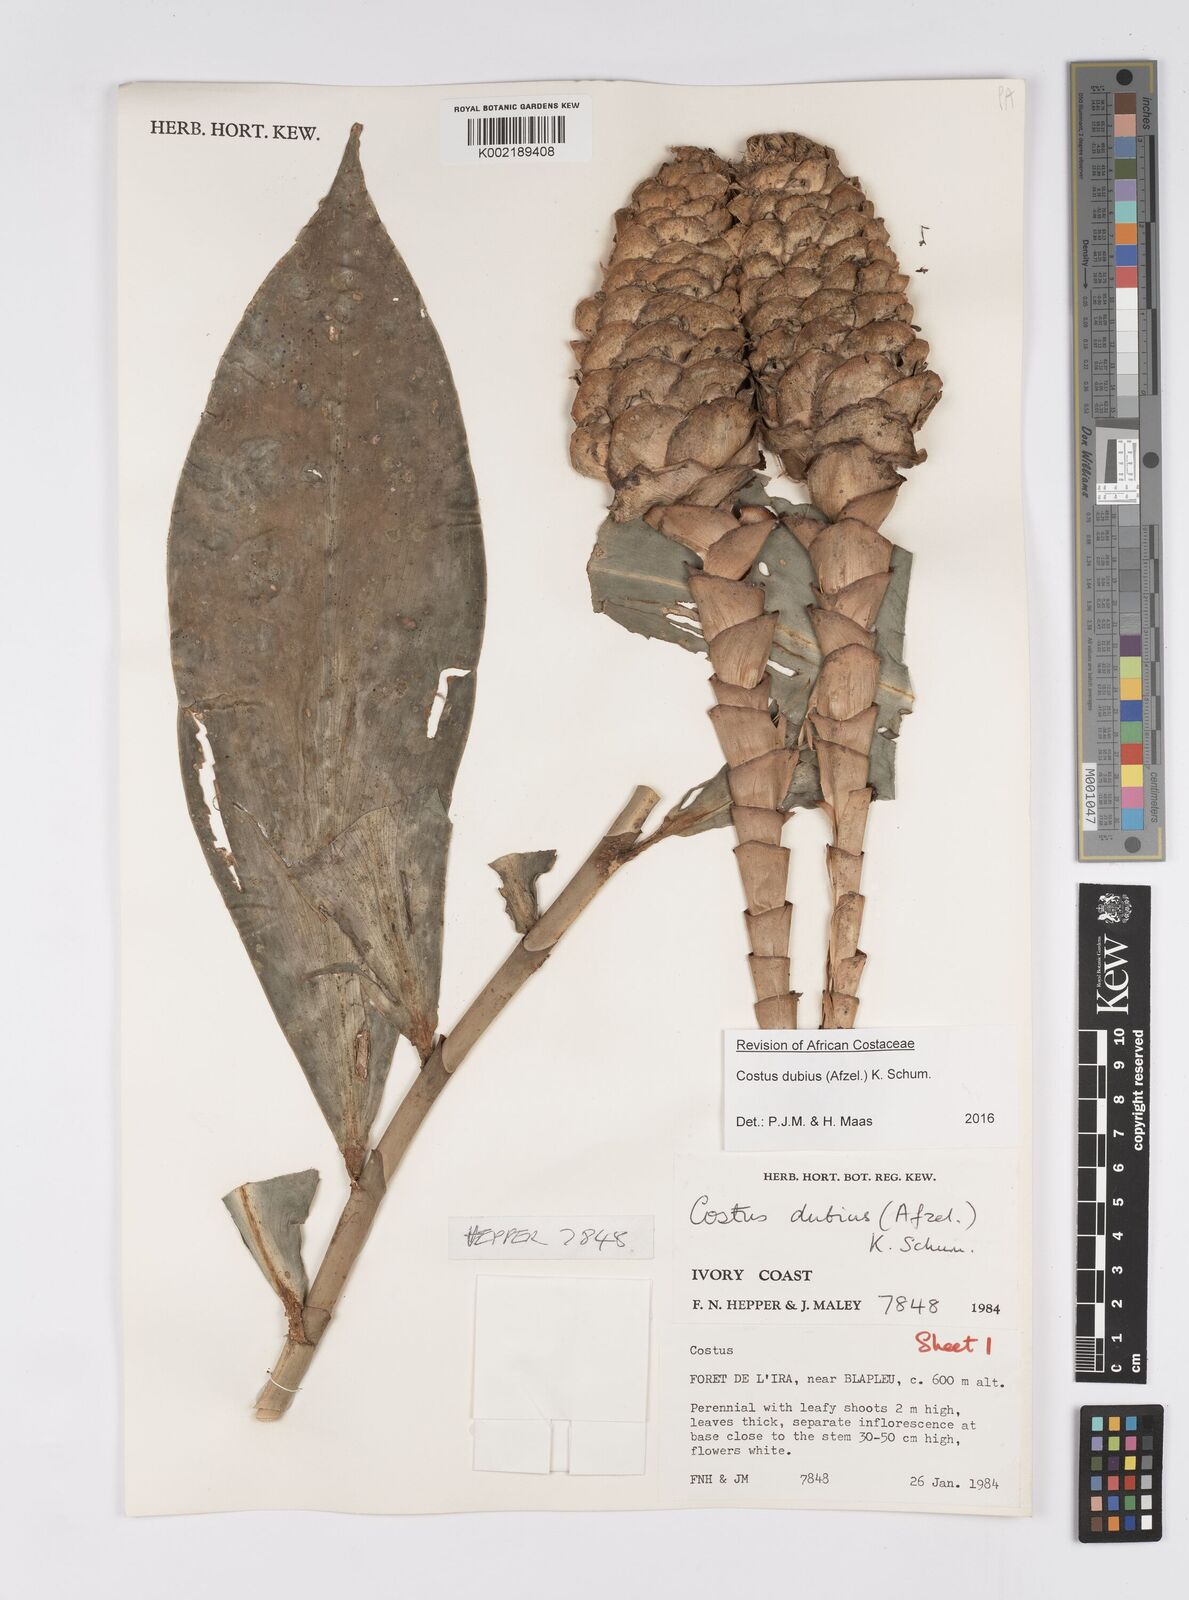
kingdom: Plantae
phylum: Tracheophyta
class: Liliopsida
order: Zingiberales
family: Costaceae
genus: Costus
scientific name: Costus dubius
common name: Costus
